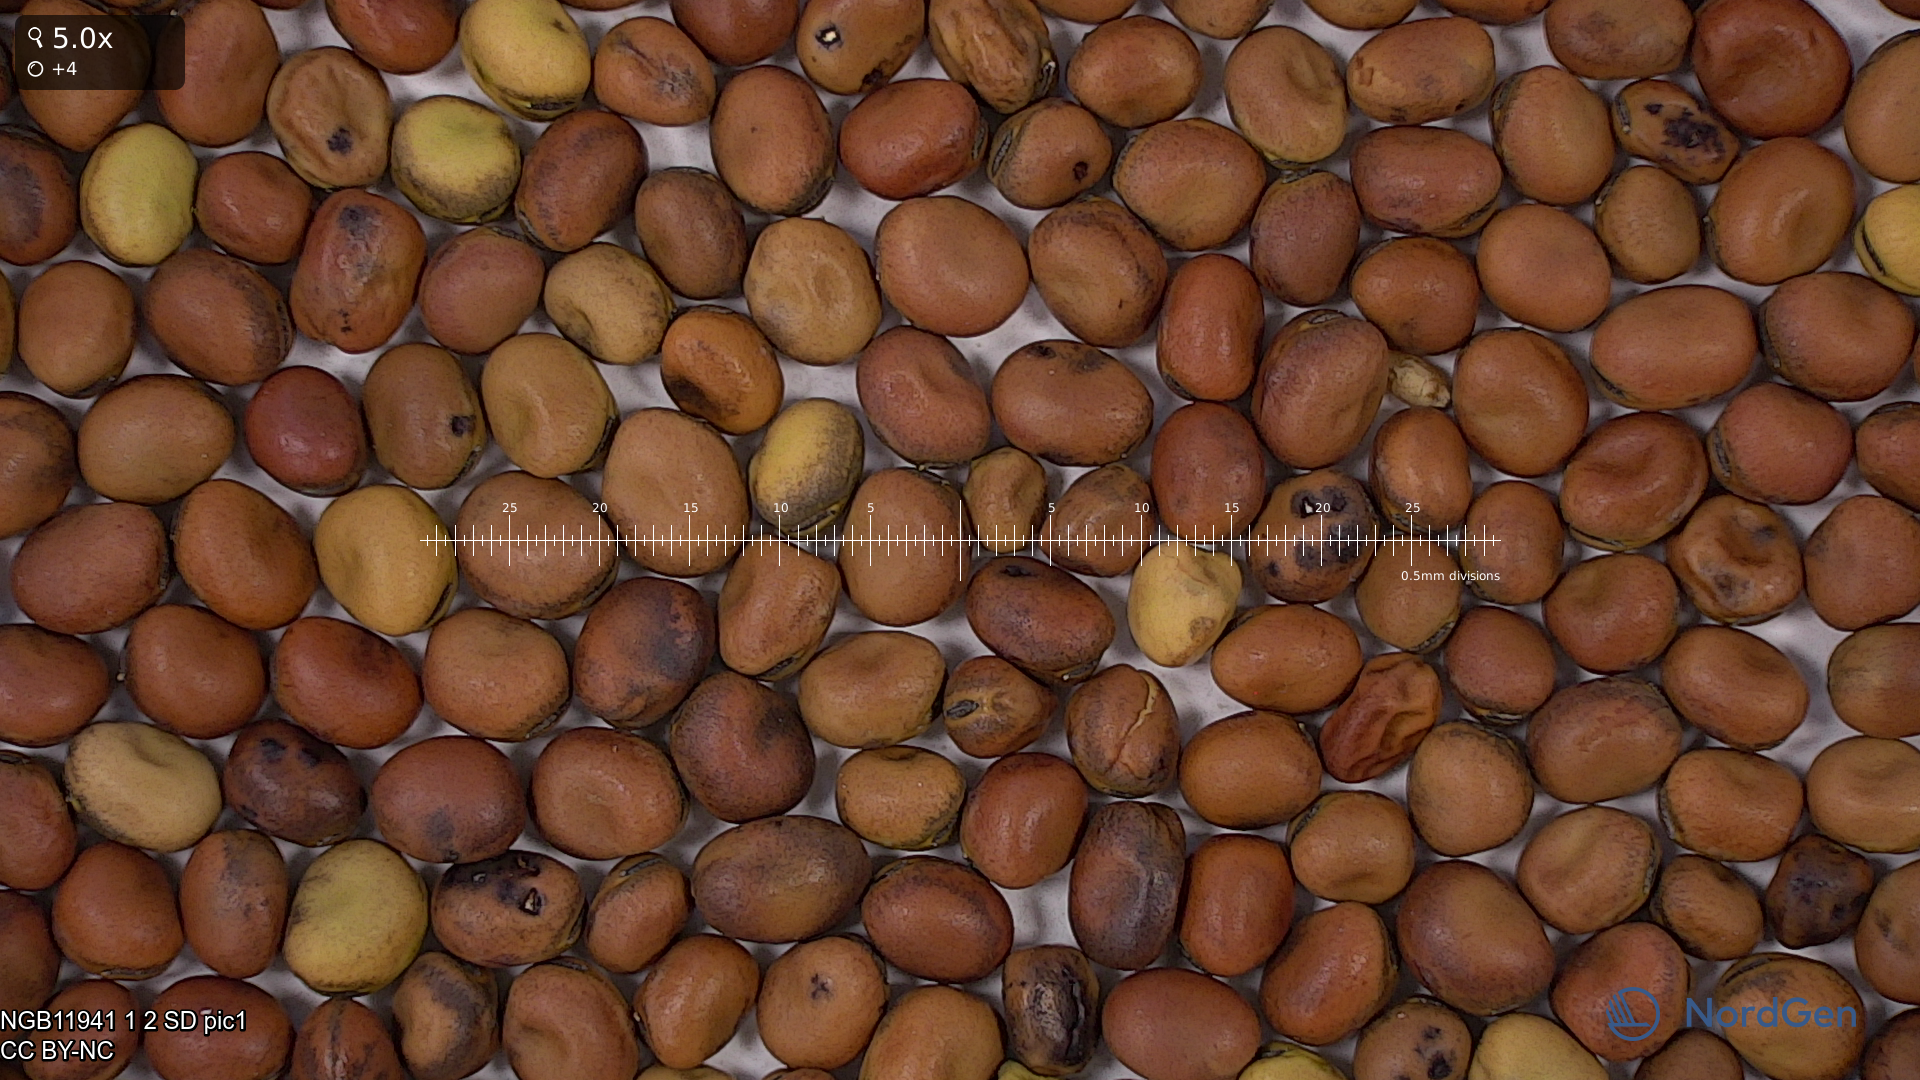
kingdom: Plantae
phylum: Tracheophyta
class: Magnoliopsida
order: Fabales
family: Fabaceae
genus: Vicia
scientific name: Vicia faba
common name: Broad bean
